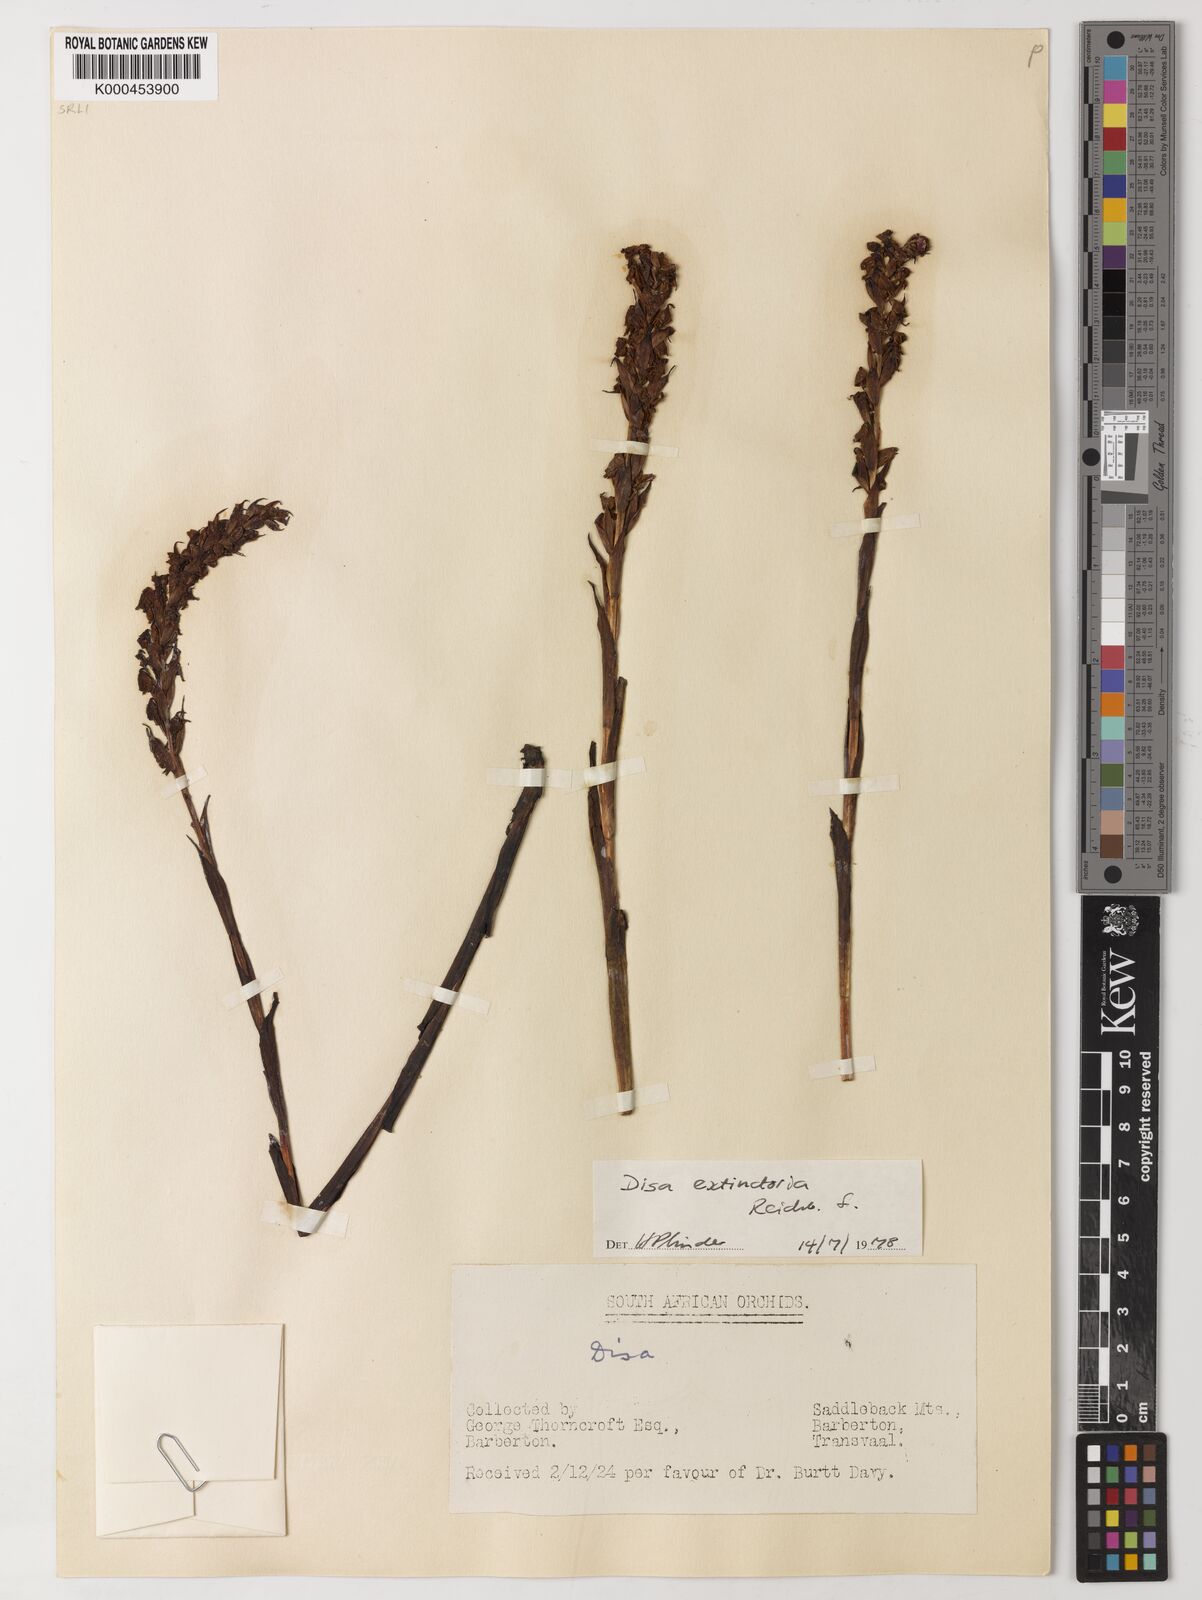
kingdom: Plantae
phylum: Tracheophyta
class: Liliopsida
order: Asparagales
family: Orchidaceae
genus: Disa
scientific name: Disa extinctoria
